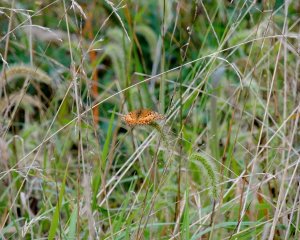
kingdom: Animalia
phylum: Arthropoda
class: Insecta
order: Lepidoptera
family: Nymphalidae
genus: Euptoieta
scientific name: Euptoieta claudia
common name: Variegated Fritillary
